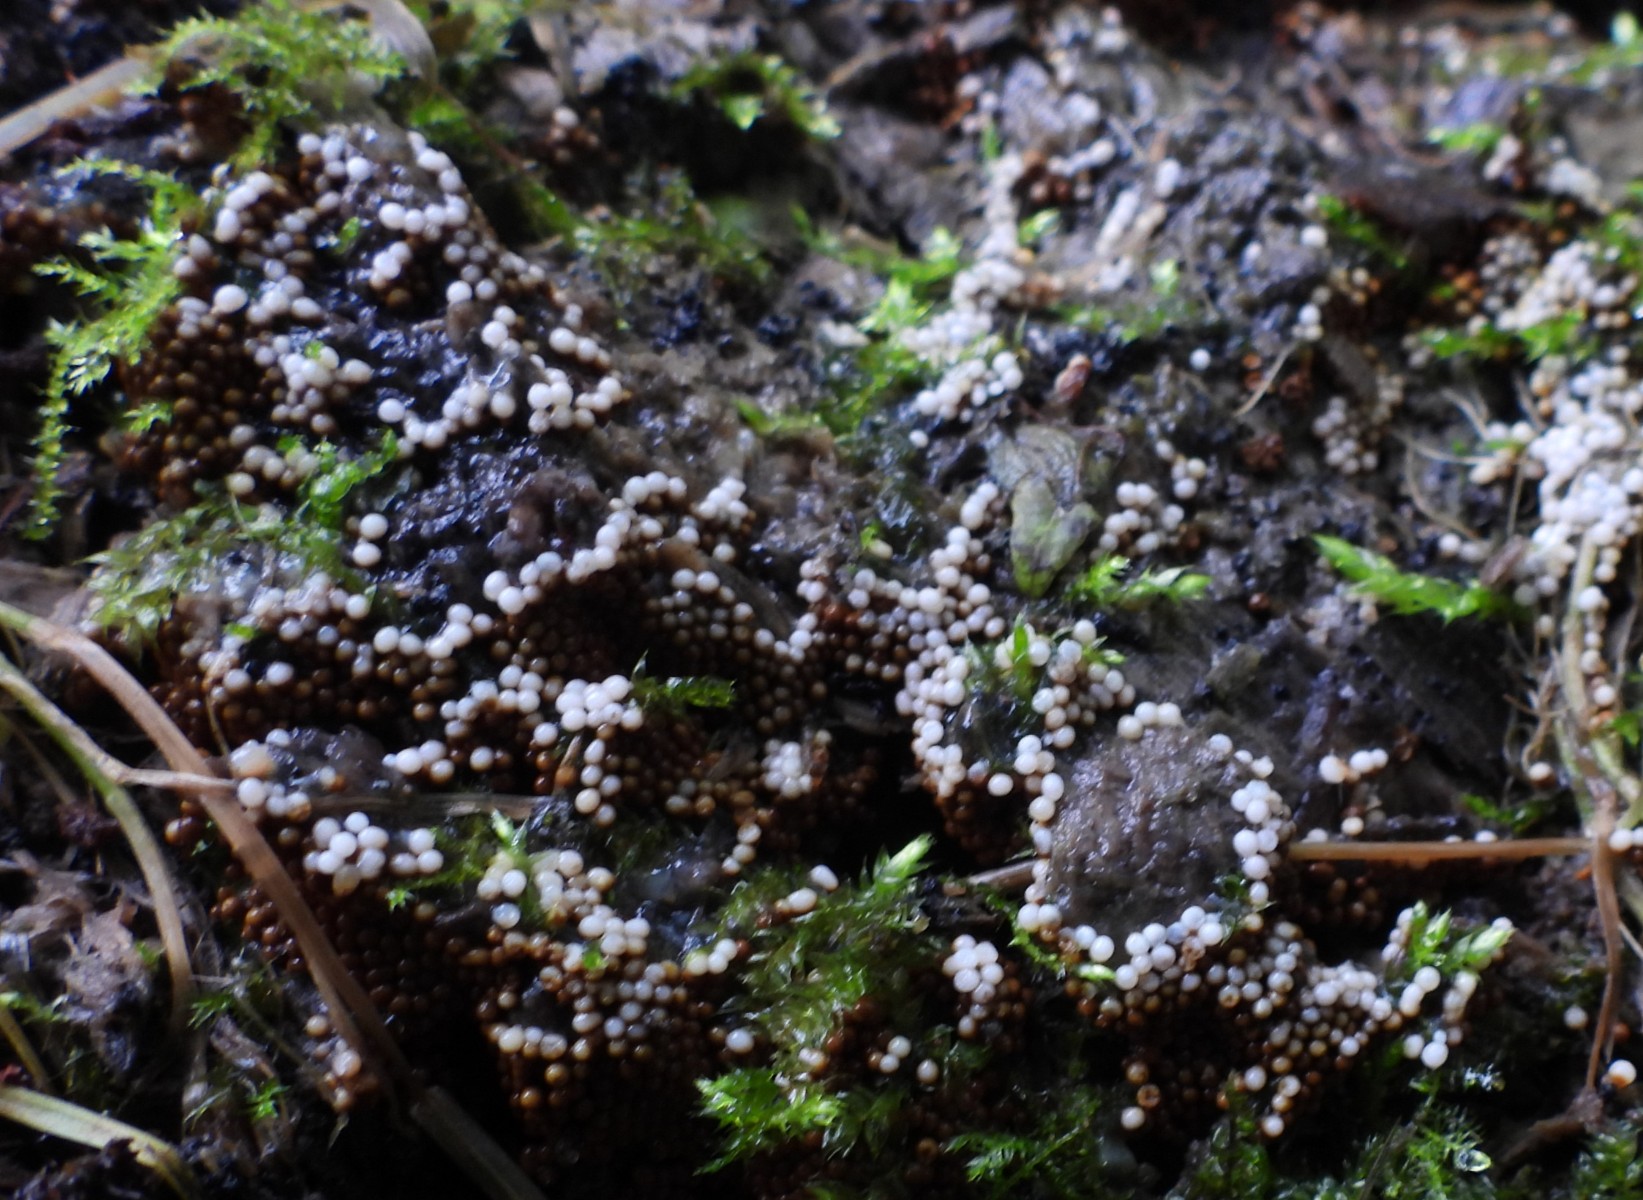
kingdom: Protozoa
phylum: Mycetozoa
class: Myxomycetes
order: Trichiales
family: Trichiaceae
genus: Trichia
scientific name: Trichia
